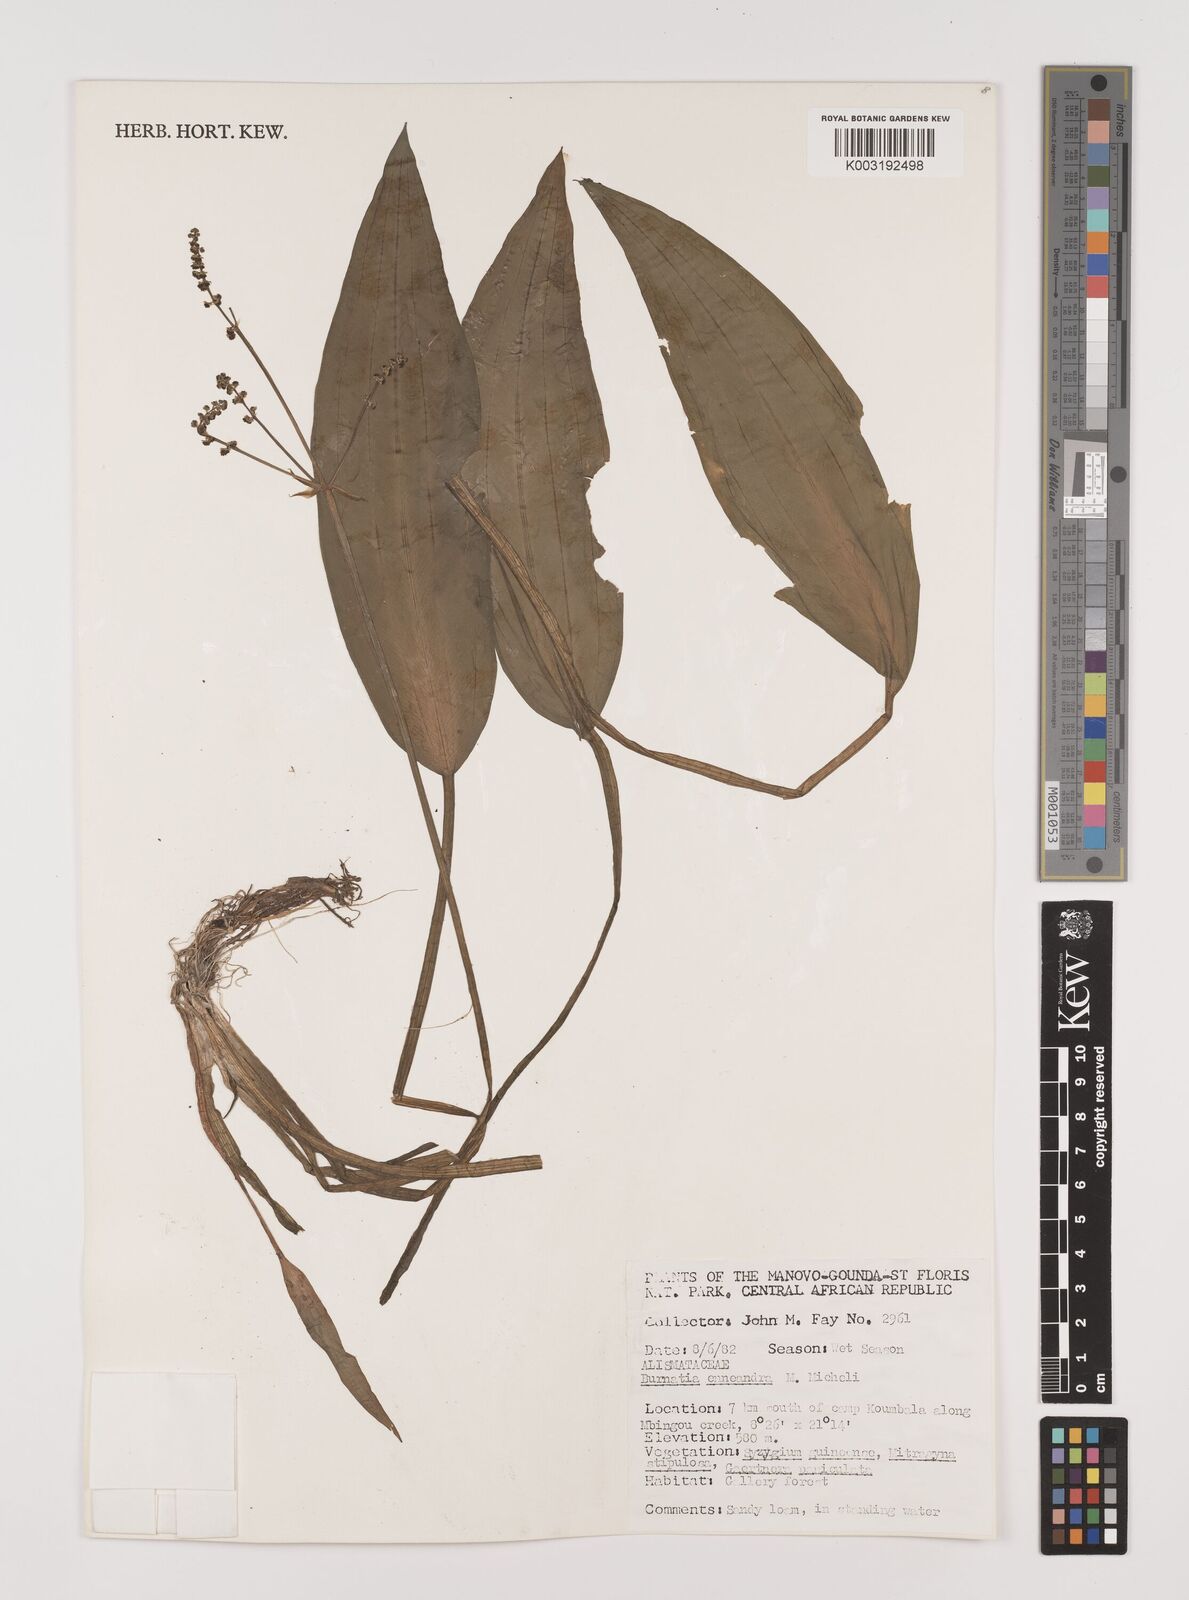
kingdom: Plantae
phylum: Tracheophyta
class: Liliopsida
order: Alismatales
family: Alismataceae
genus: Burnatia
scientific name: Burnatia enneandra
